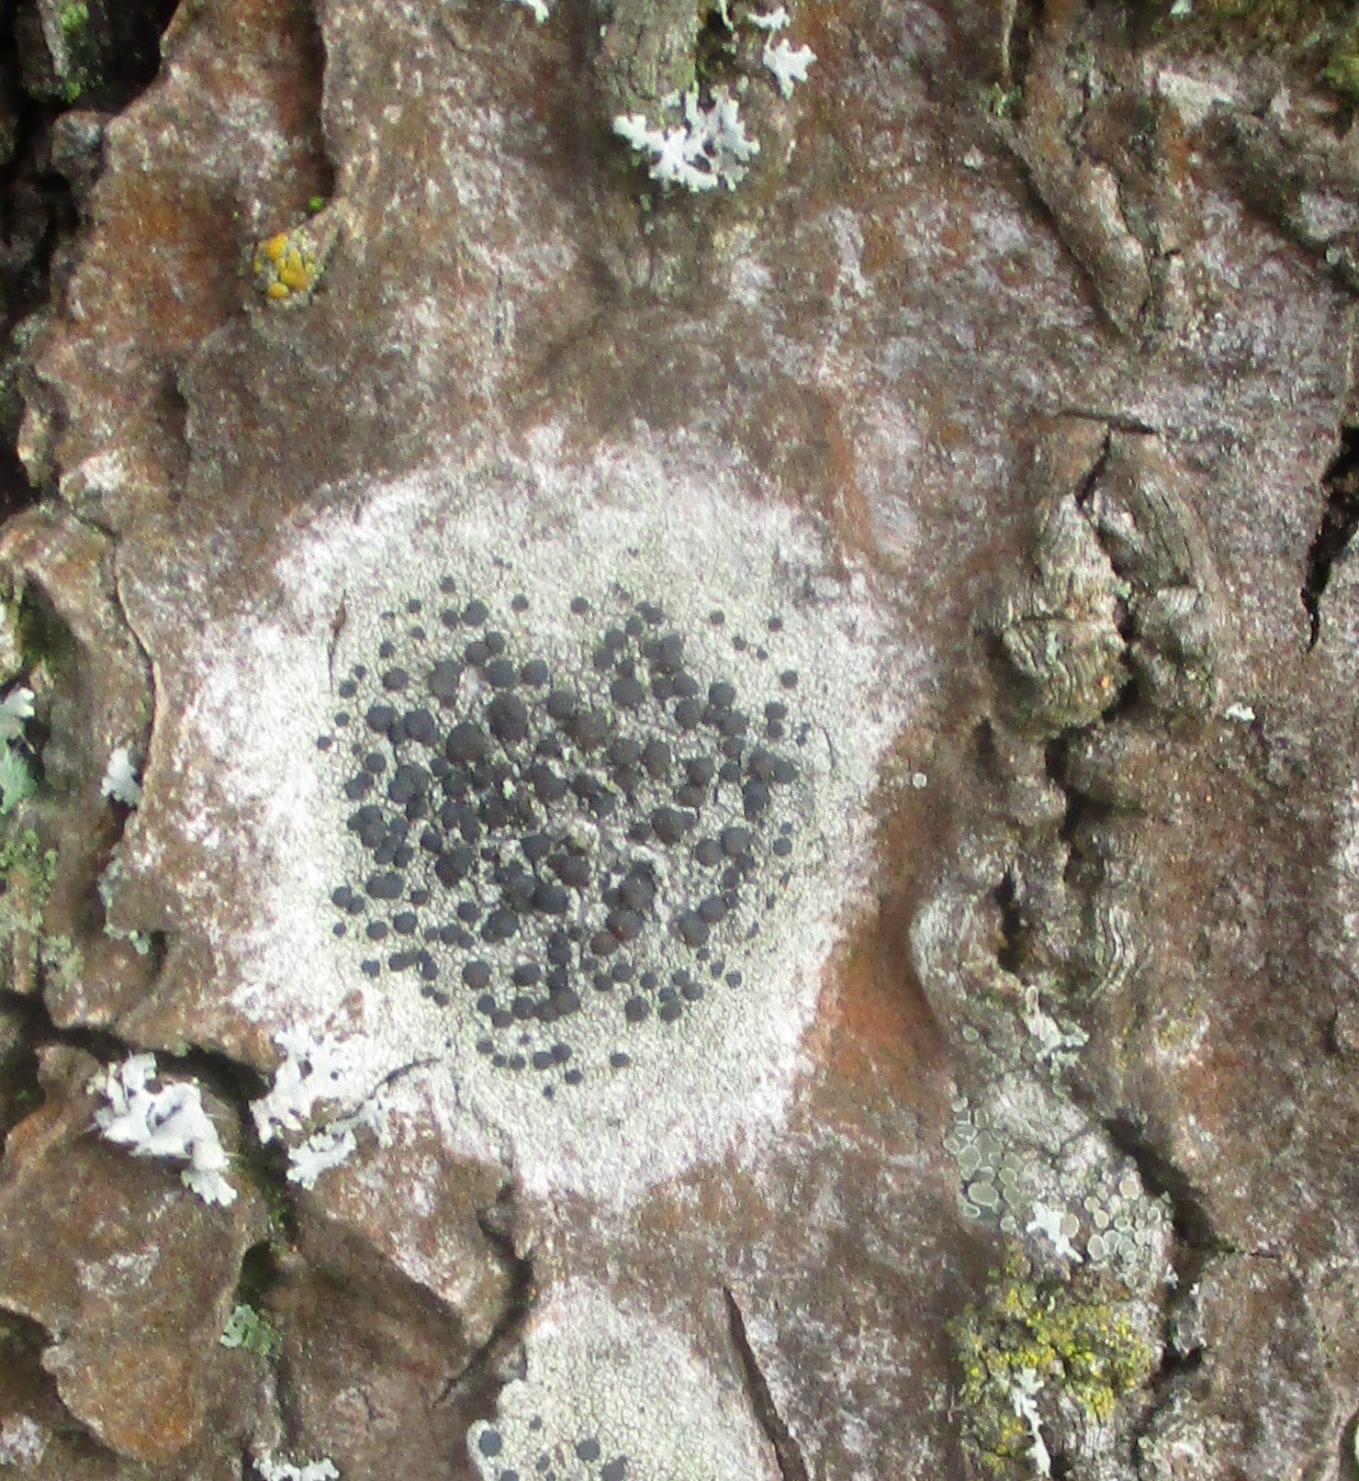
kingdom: Fungi
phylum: Ascomycota
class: Lecanoromycetes
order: Lecanorales
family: Lecanoraceae
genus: Lecidella
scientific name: Lecidella elaeochroma
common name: Grågrøn skivelav
